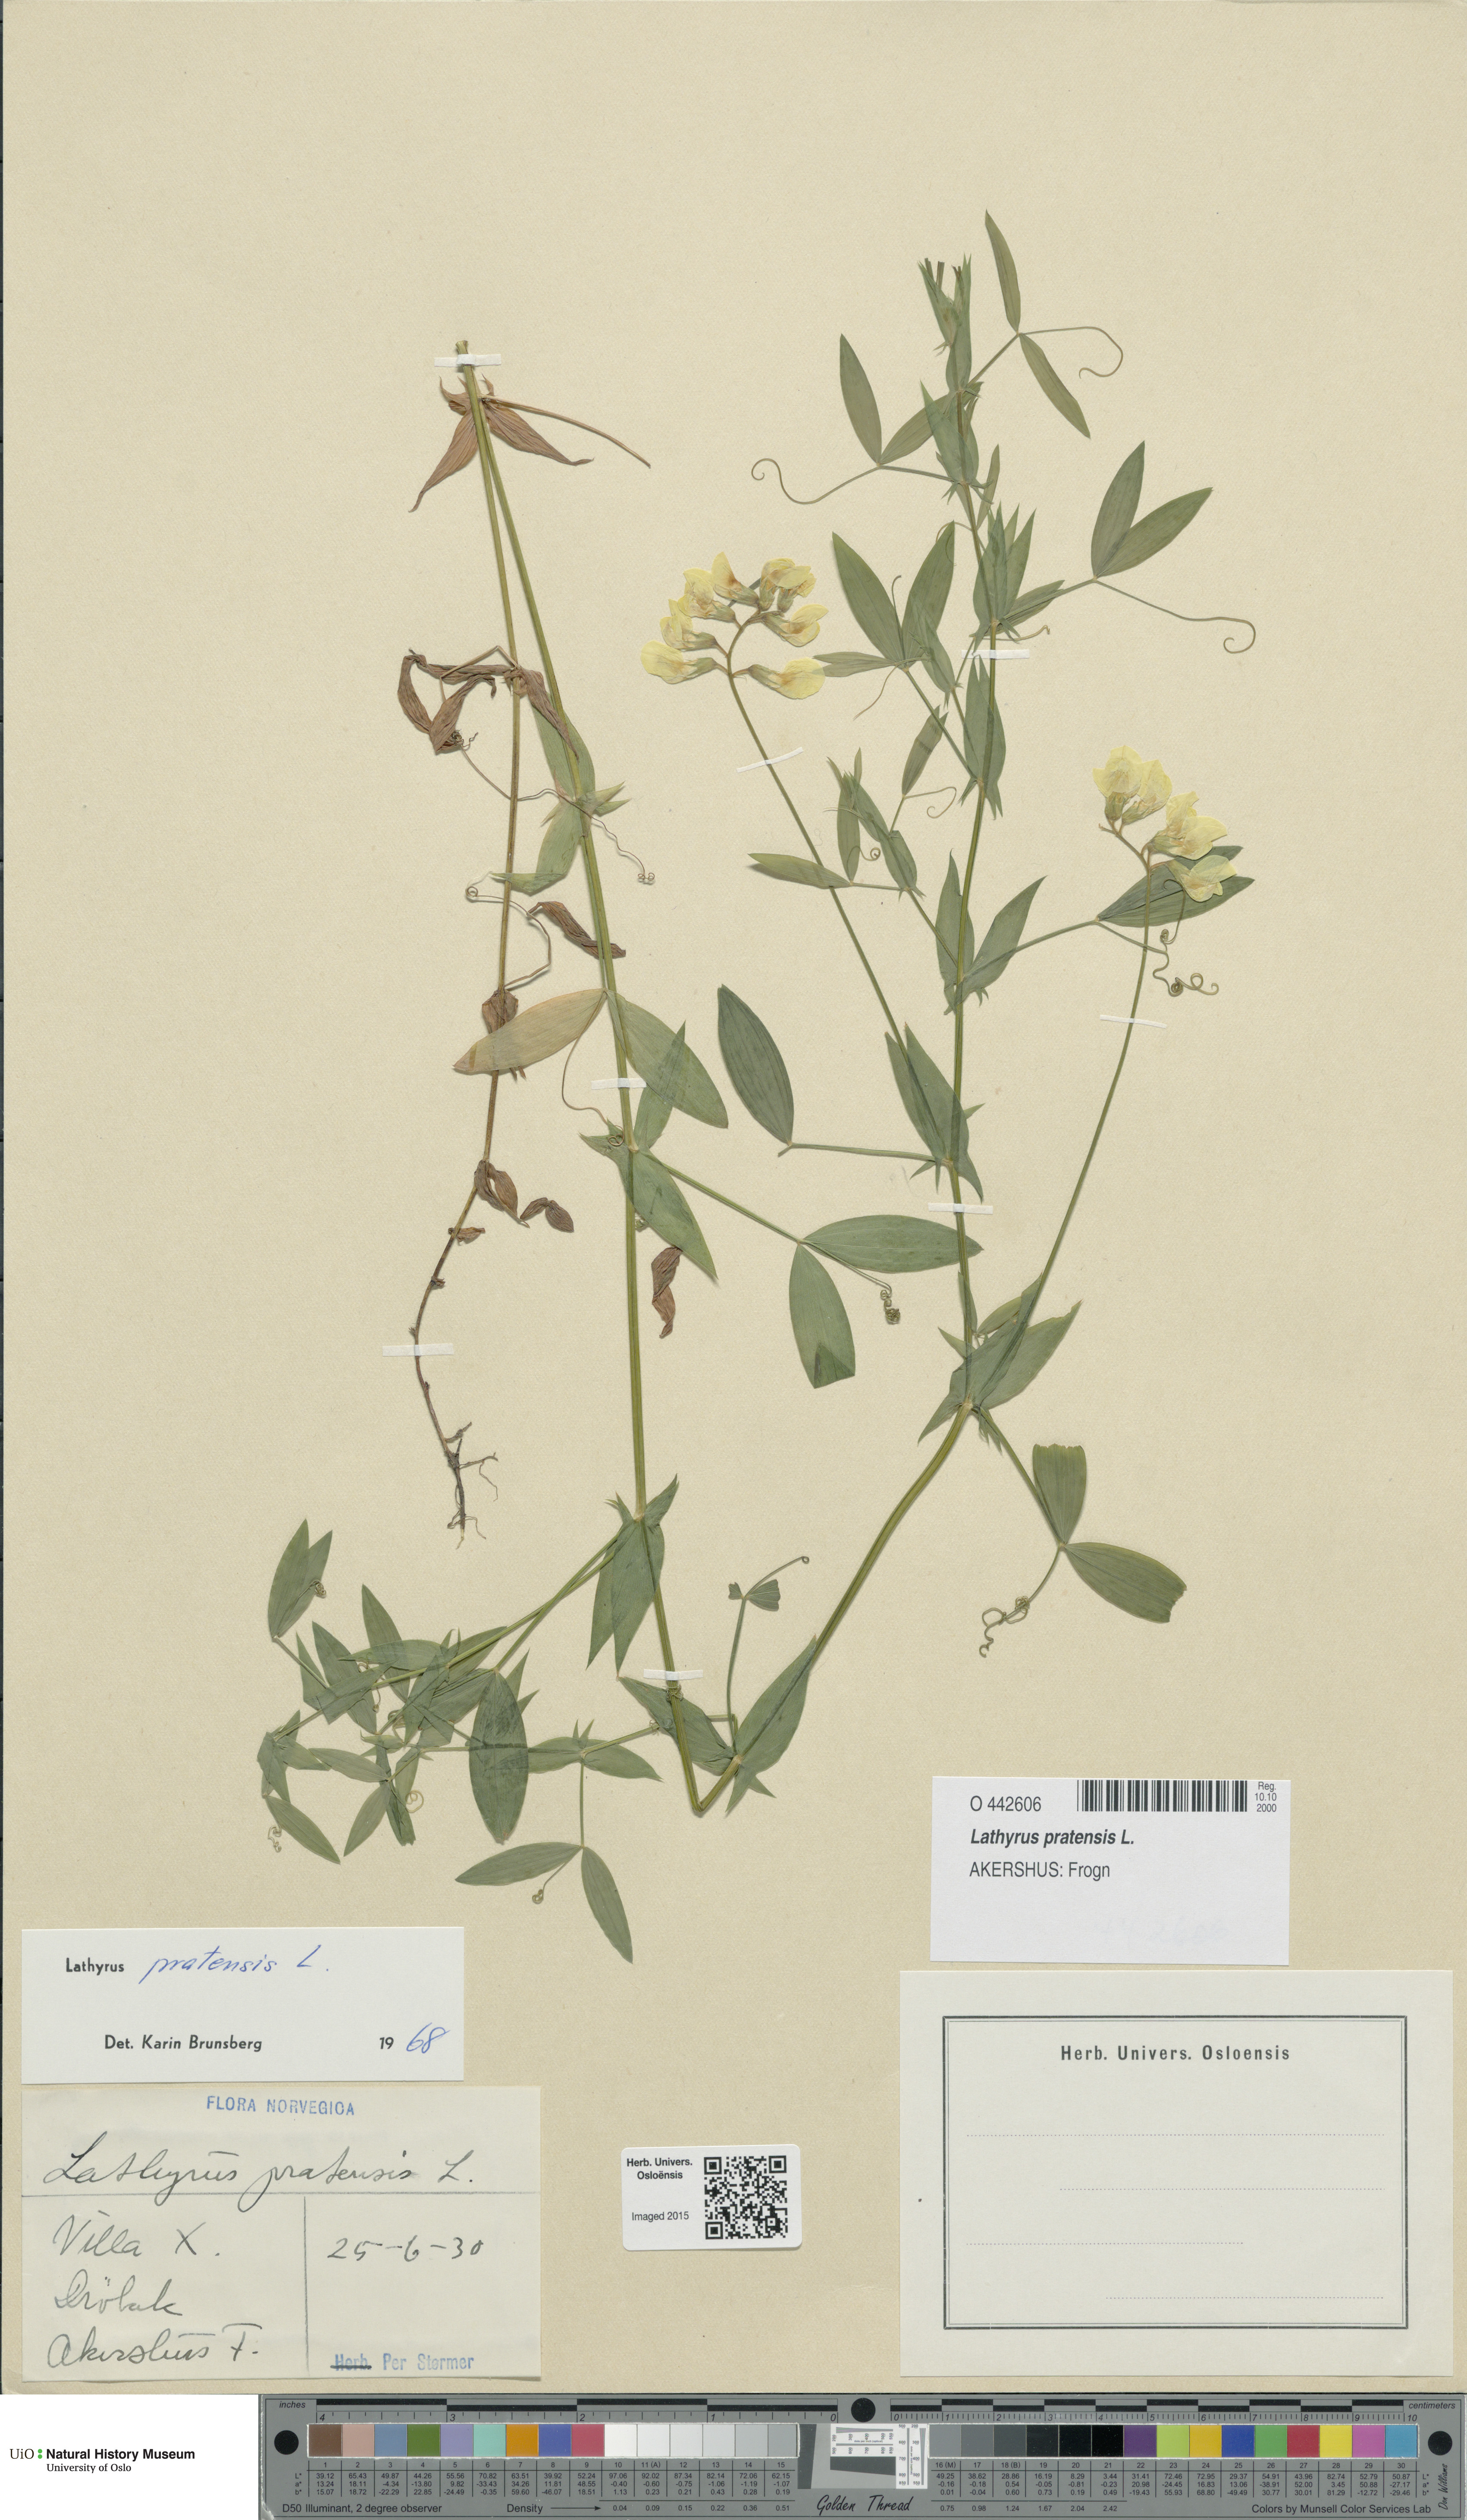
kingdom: Plantae
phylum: Tracheophyta
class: Magnoliopsida
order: Fabales
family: Fabaceae
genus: Lathyrus
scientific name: Lathyrus pratensis
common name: Meadow vetchling
